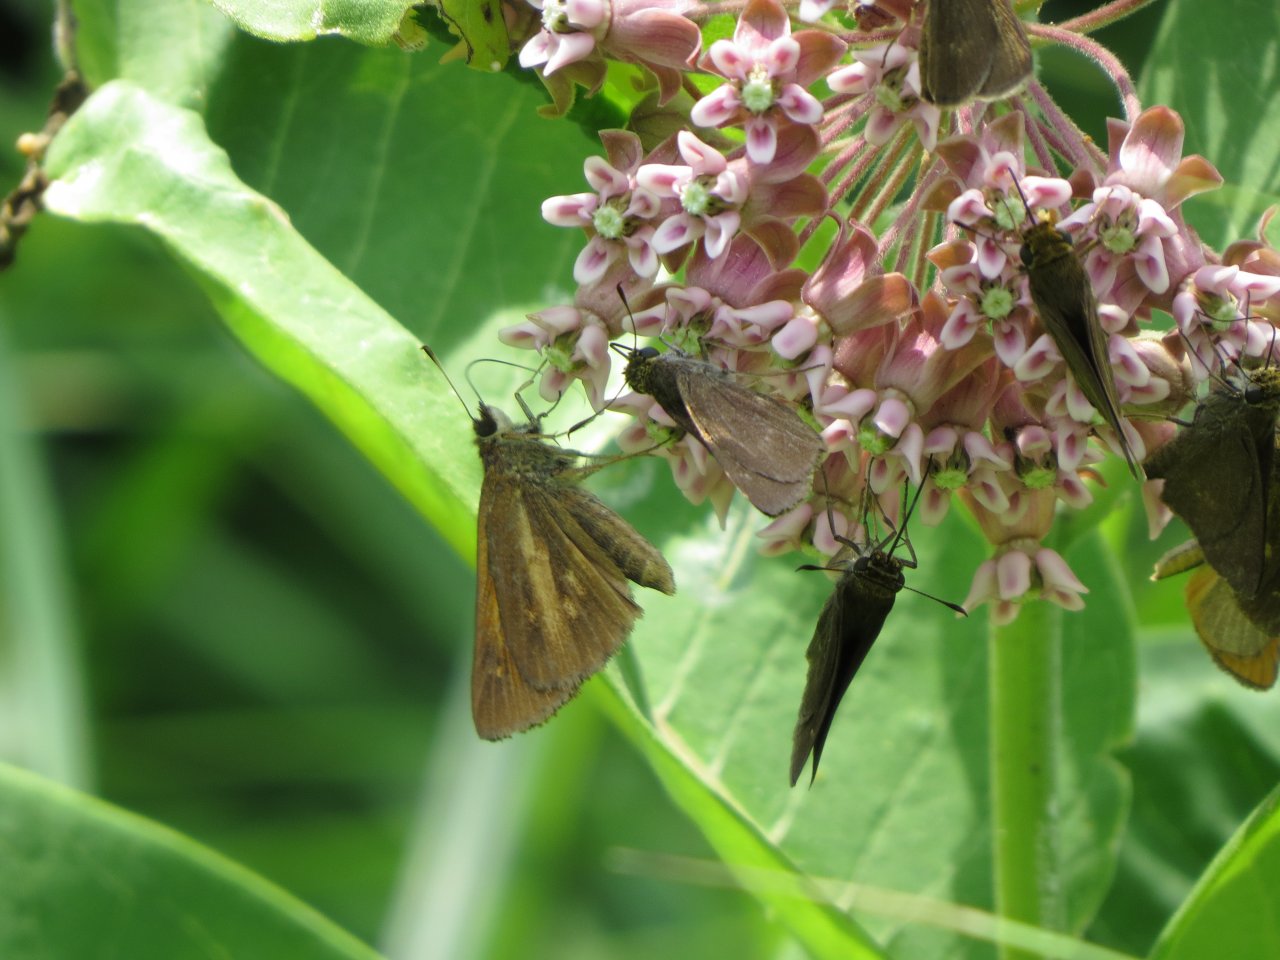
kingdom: Animalia
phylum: Arthropoda
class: Insecta
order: Lepidoptera
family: Hesperiidae
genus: Poanes
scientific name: Poanes viator
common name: Broad-winged Skipper
